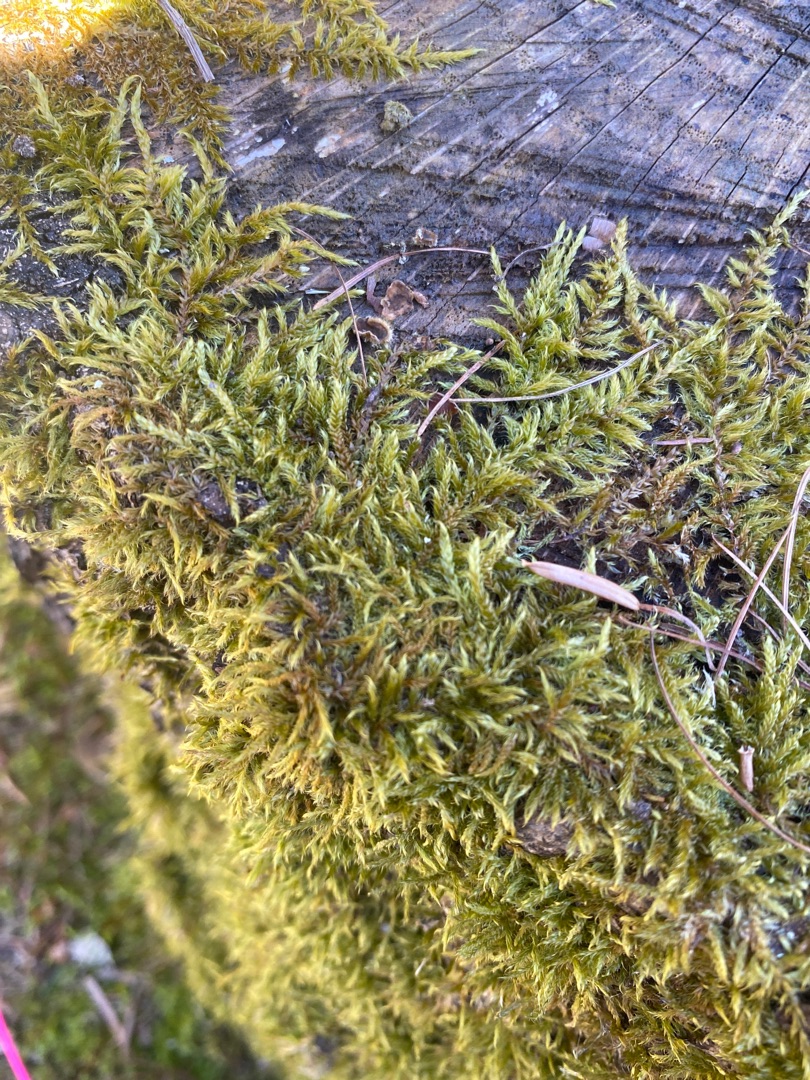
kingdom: Plantae
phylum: Bryophyta
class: Bryopsida
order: Hypnales
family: Hypnaceae
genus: Hypnum
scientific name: Hypnum cupressiforme
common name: Almindelig cypresmos
